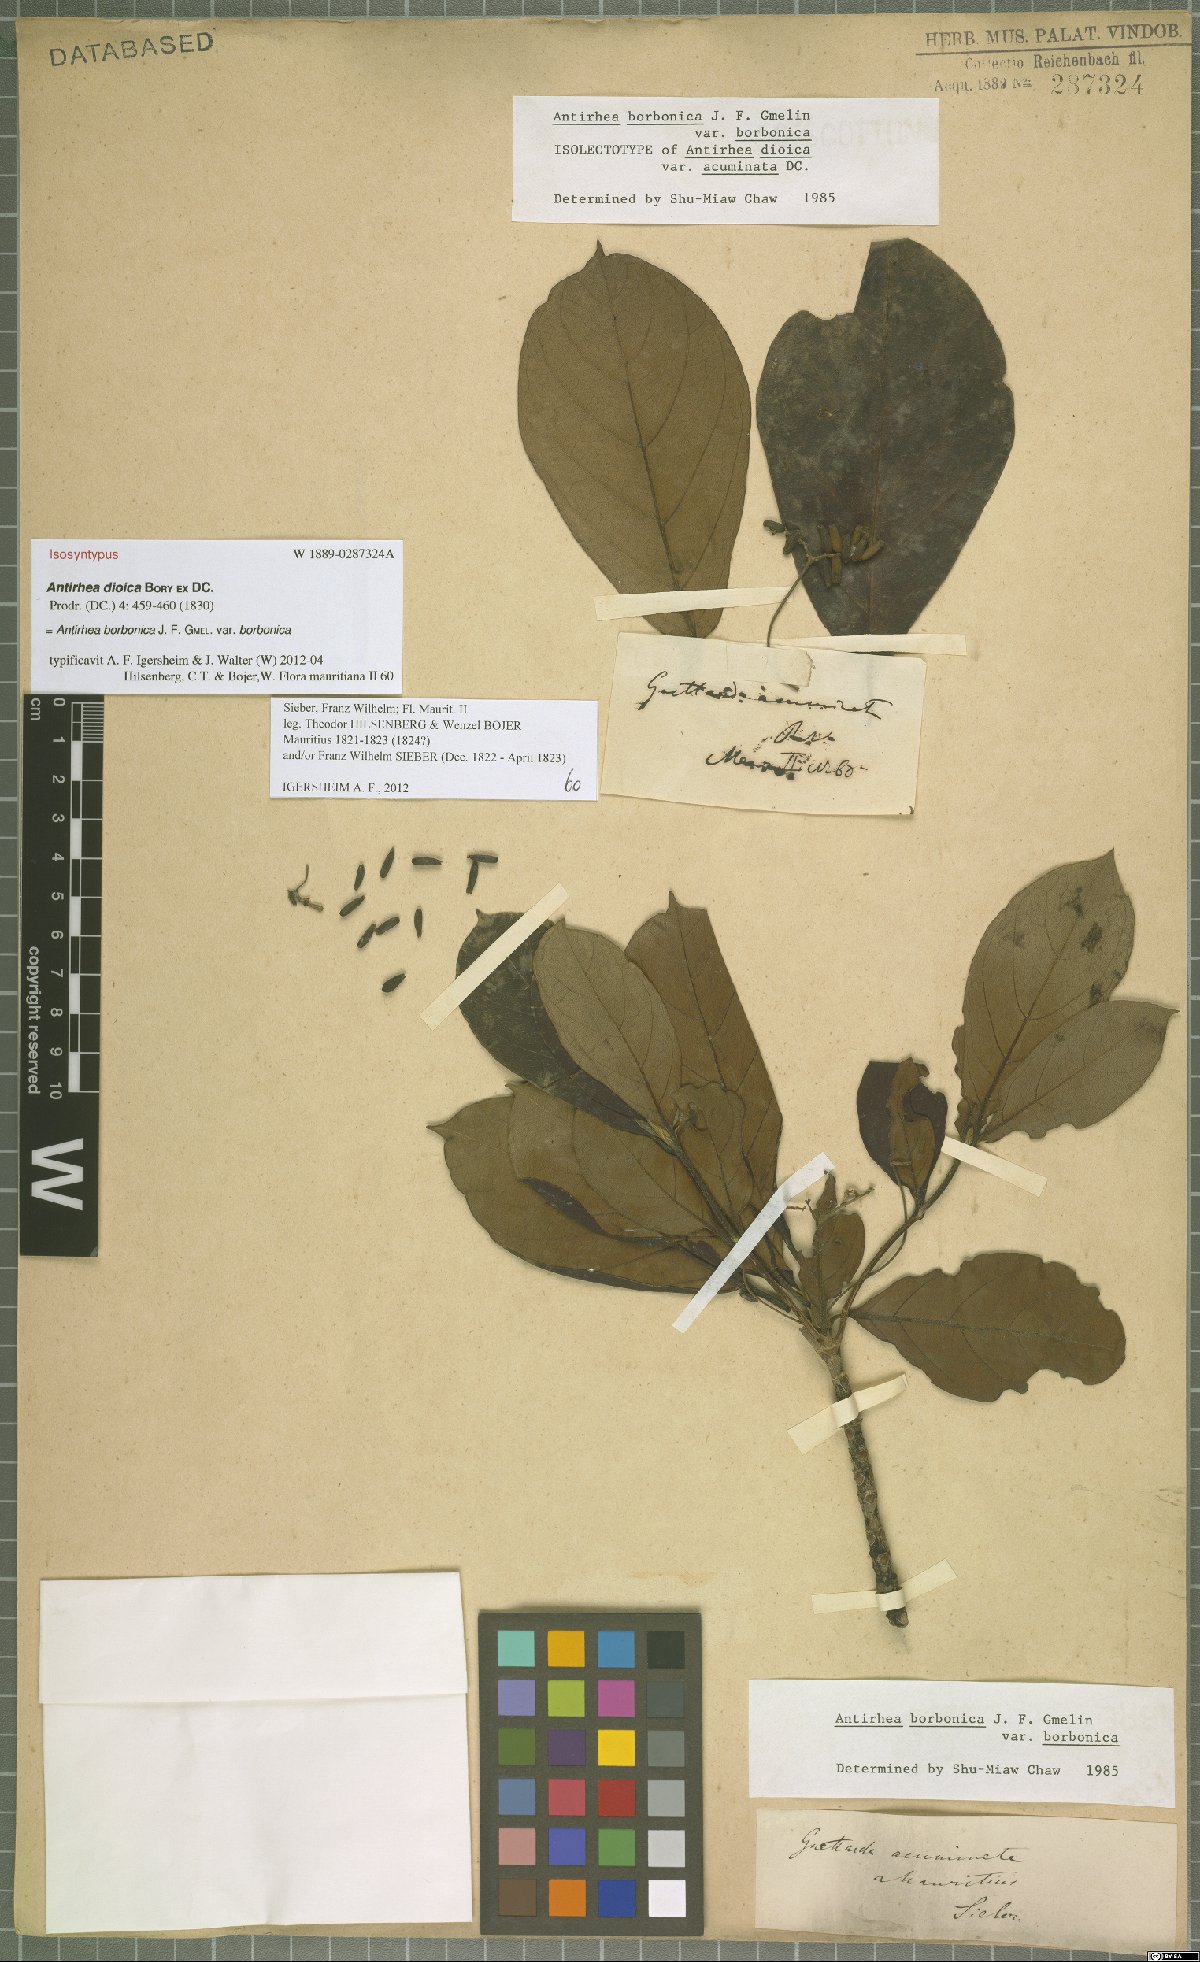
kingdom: Plantae
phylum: Tracheophyta
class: Magnoliopsida
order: Gentianales
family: Rubiaceae
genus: Antirhea
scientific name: Antirhea borbonica
